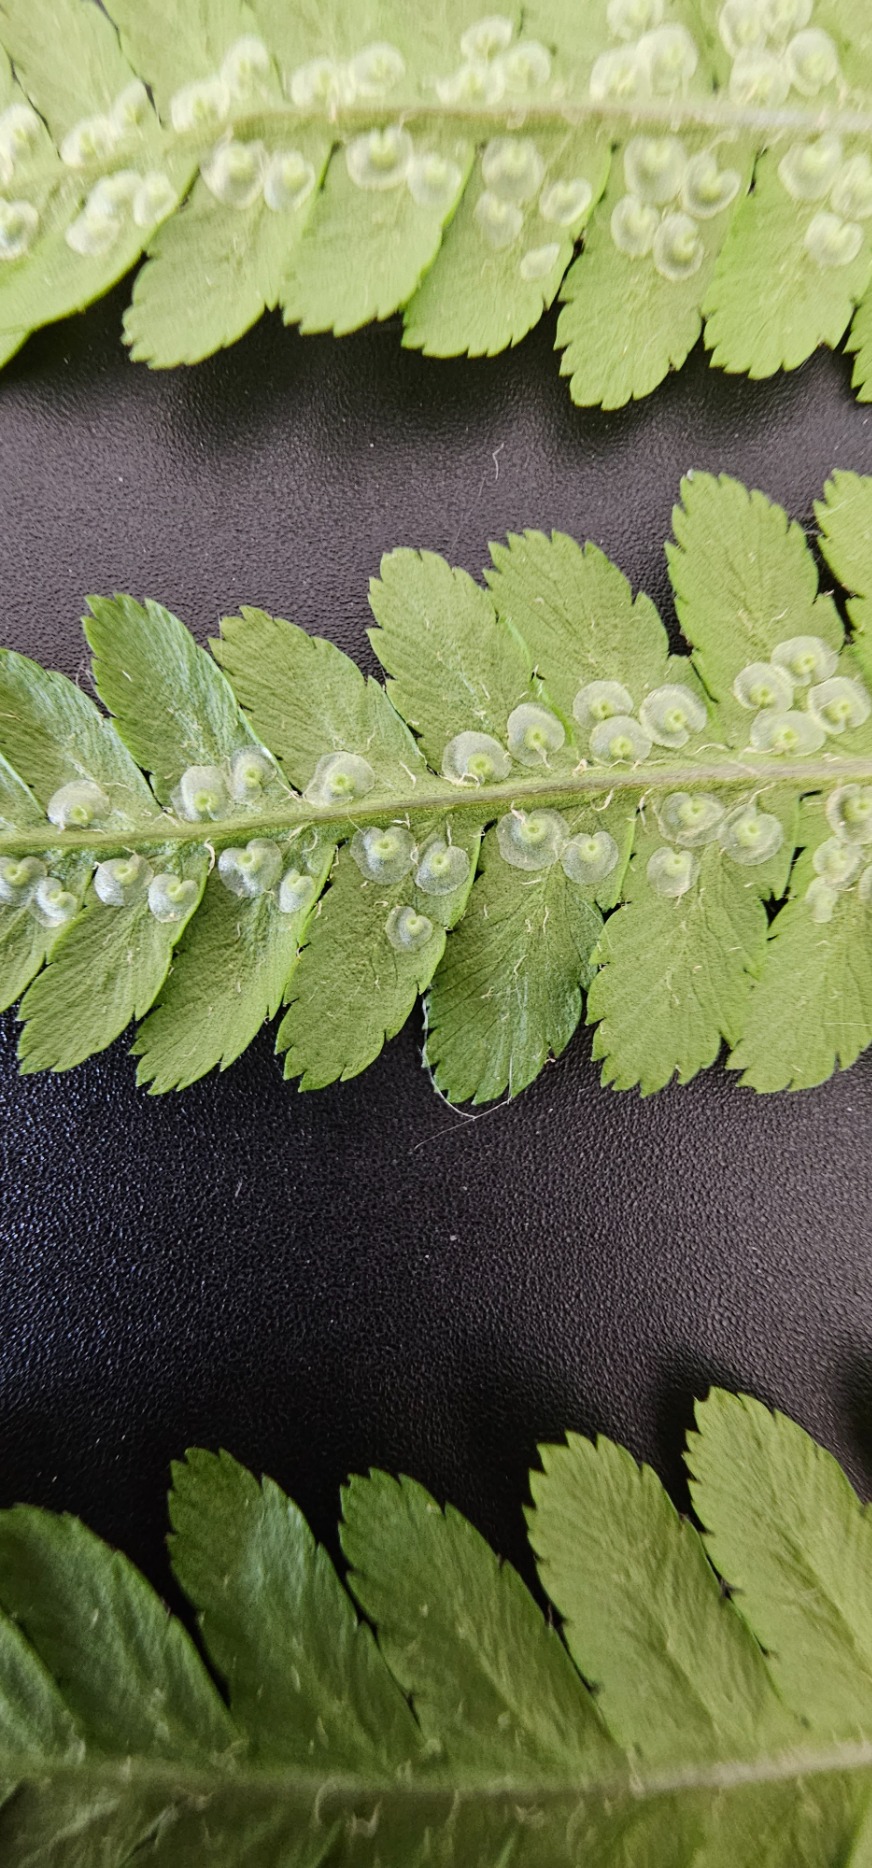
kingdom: Plantae
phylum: Tracheophyta
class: Polypodiopsida
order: Polypodiales
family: Dryopteridaceae
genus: Dryopteris
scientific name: Dryopteris filix-mas
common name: Almindelig mangeløv
